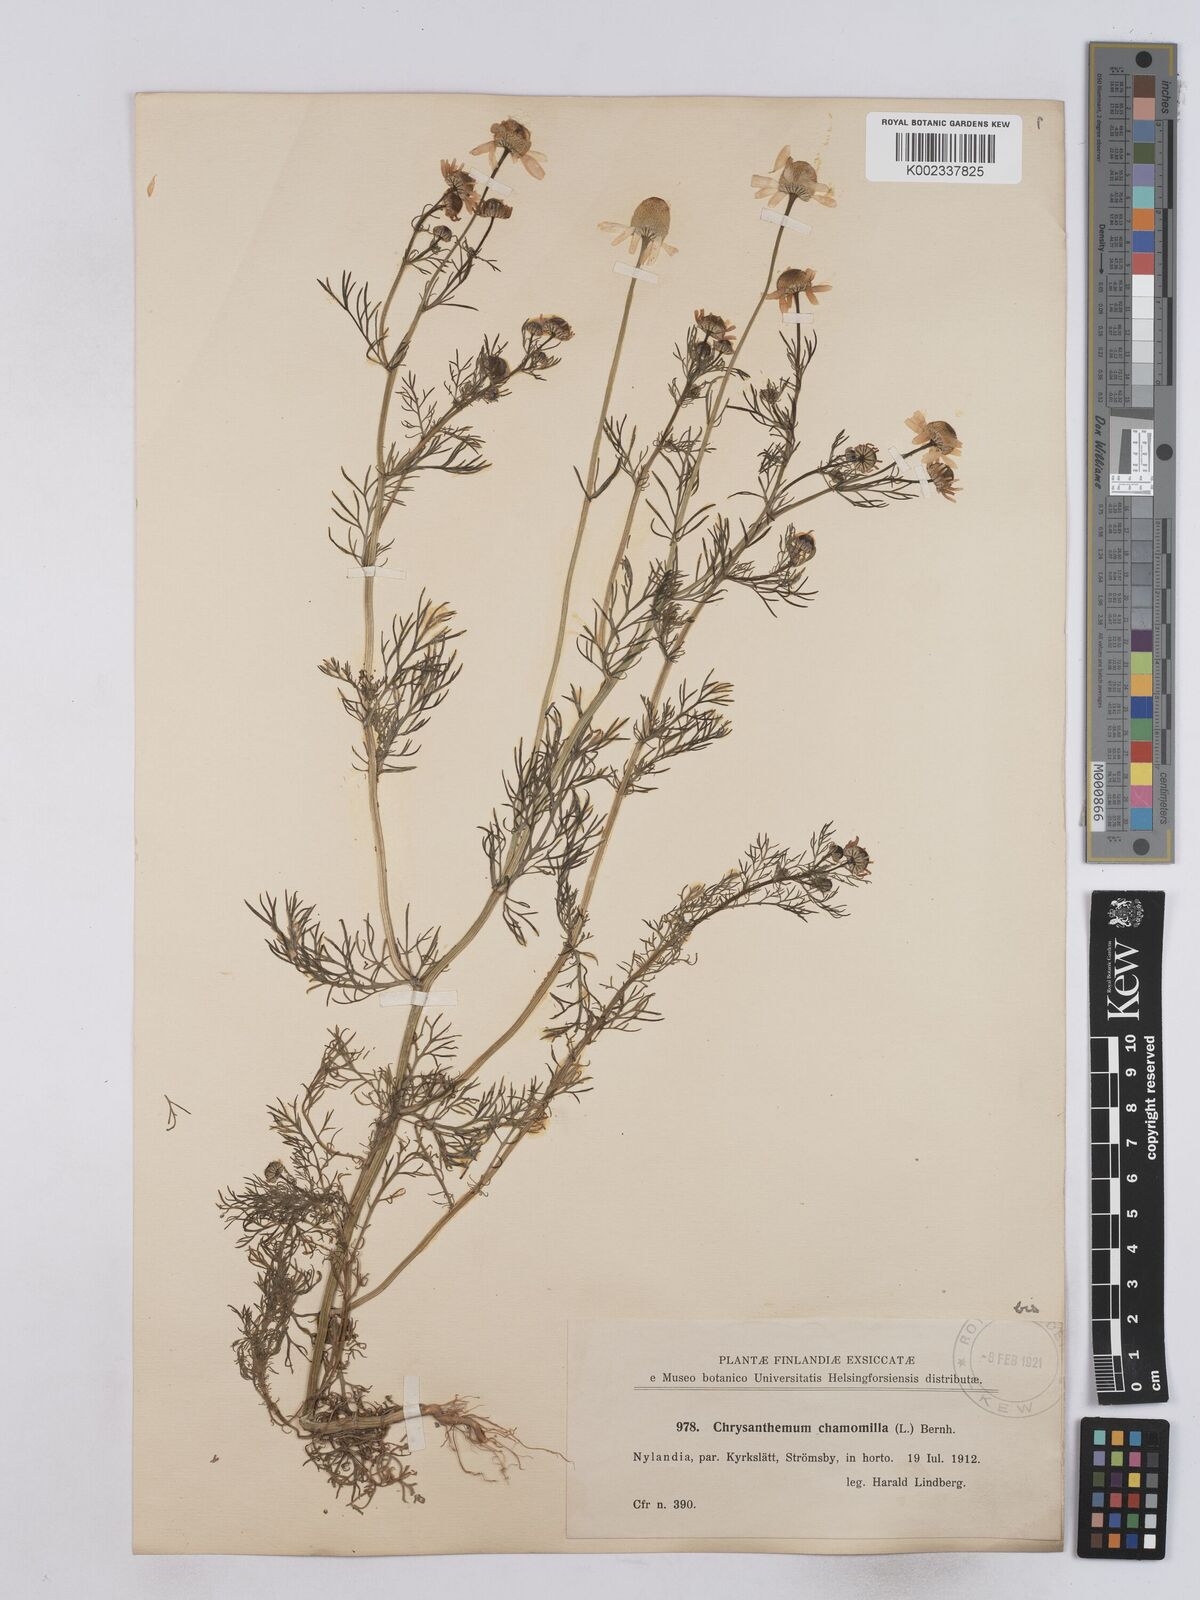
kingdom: Plantae
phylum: Tracheophyta
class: Magnoliopsida
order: Asterales
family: Asteraceae
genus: Matricaria
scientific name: Matricaria chamomilla
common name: Scented mayweed
